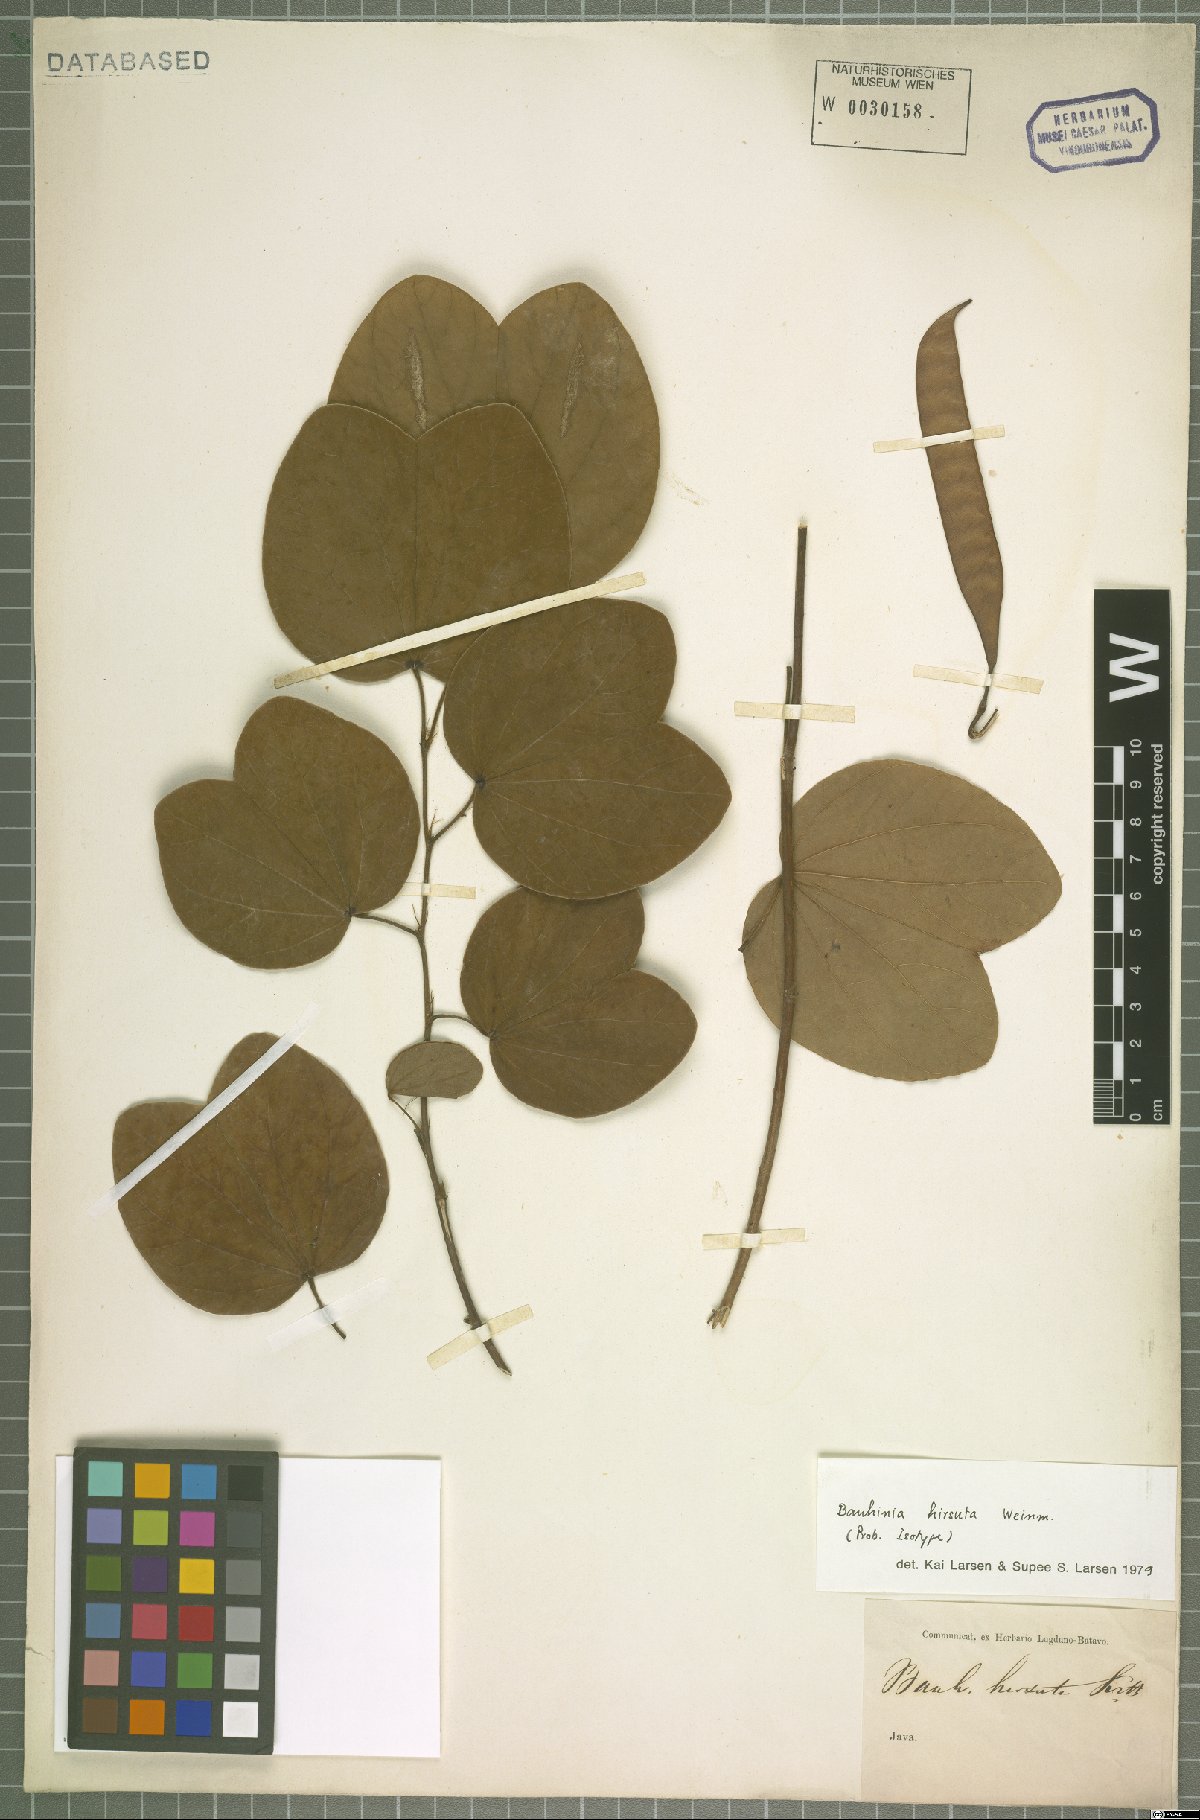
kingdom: Plantae
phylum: Tracheophyta
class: Magnoliopsida
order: Fabales
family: Fabaceae
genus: Bauhinia
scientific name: Bauhinia hirsuta
